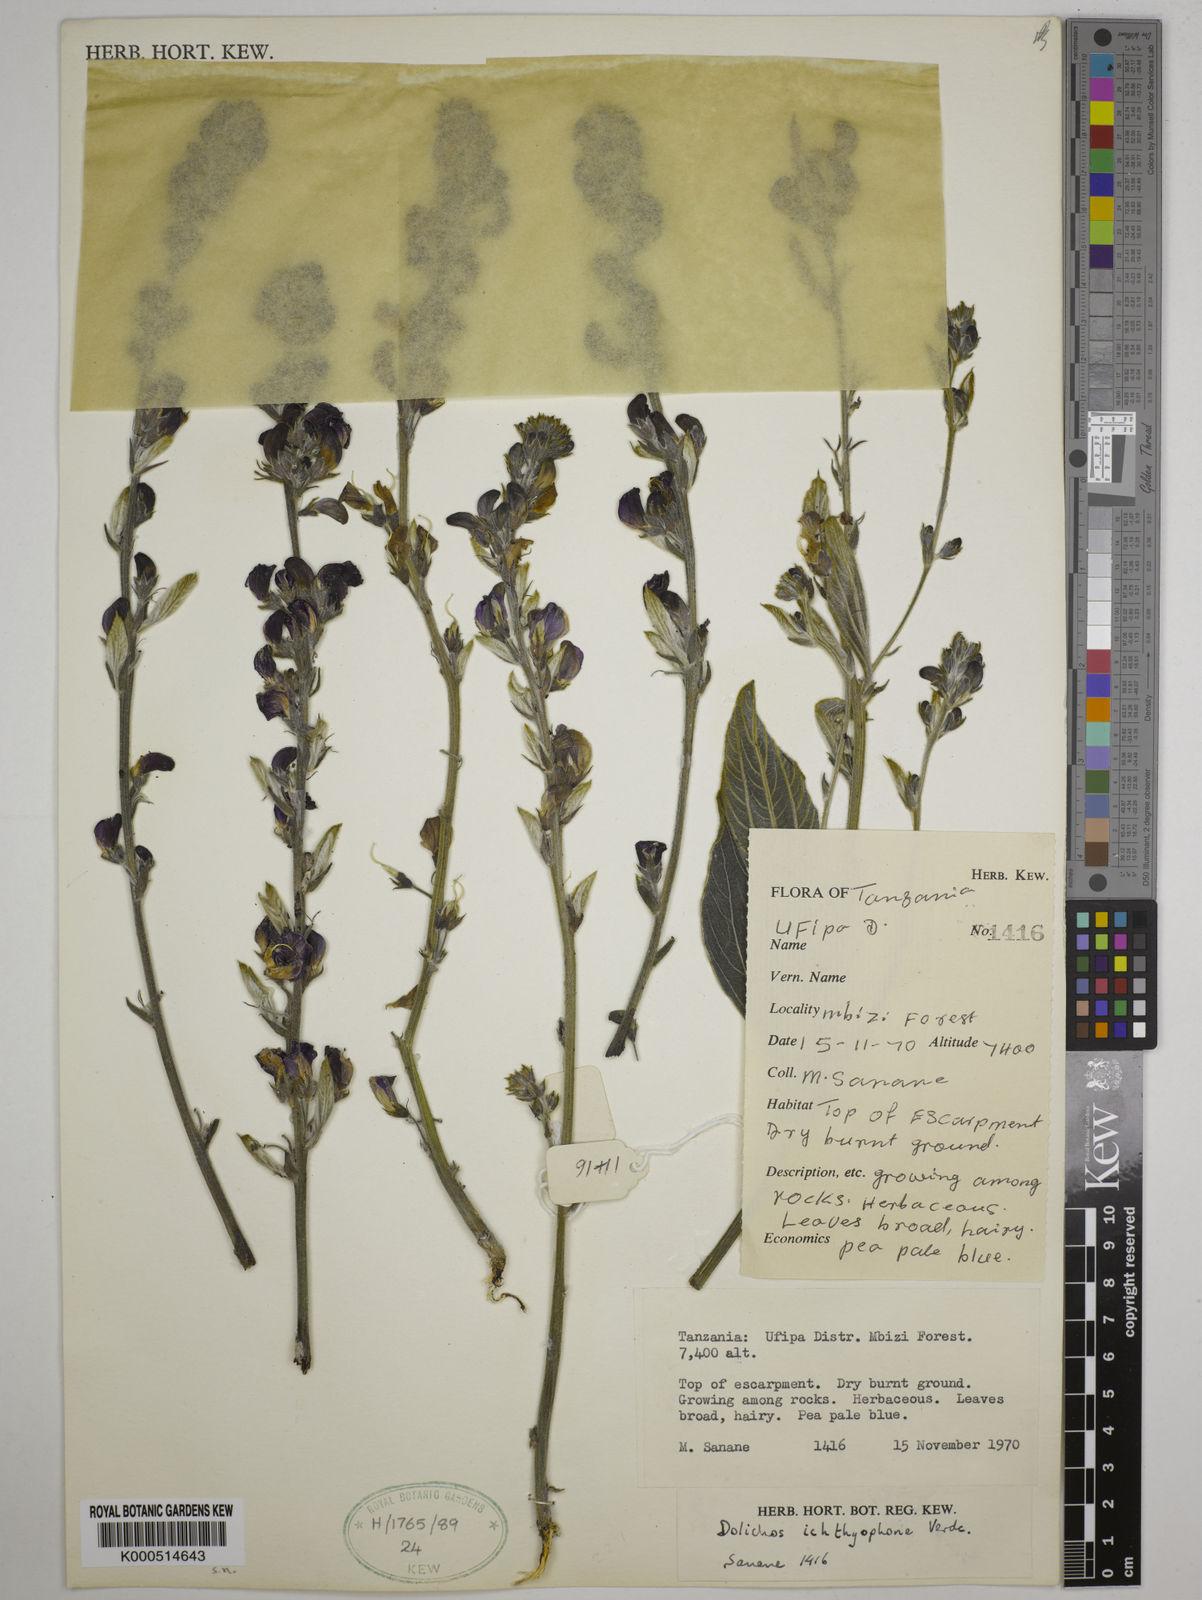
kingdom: Plantae
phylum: Tracheophyta
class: Magnoliopsida
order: Fabales
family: Fabaceae
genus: Dolichos
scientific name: Dolichos ichthyophone
